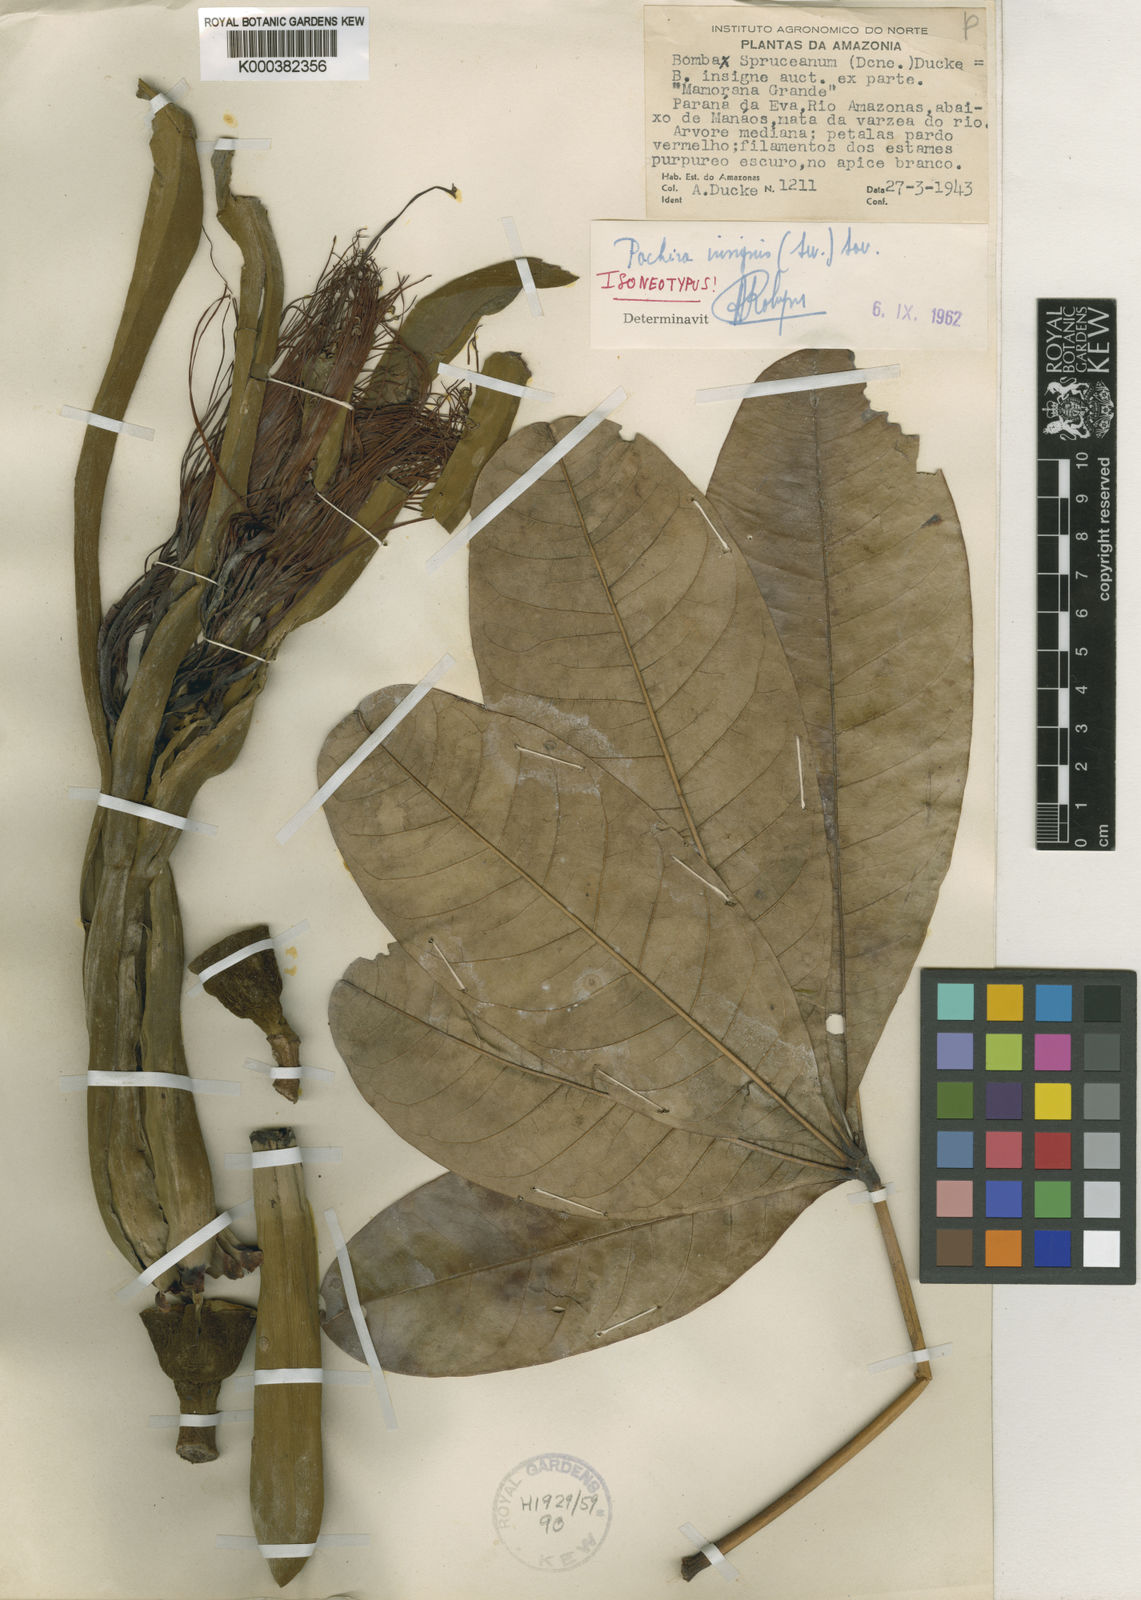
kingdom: Plantae
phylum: Tracheophyta
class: Magnoliopsida
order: Malvales
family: Malvaceae
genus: Pachira
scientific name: Pachira insignis
